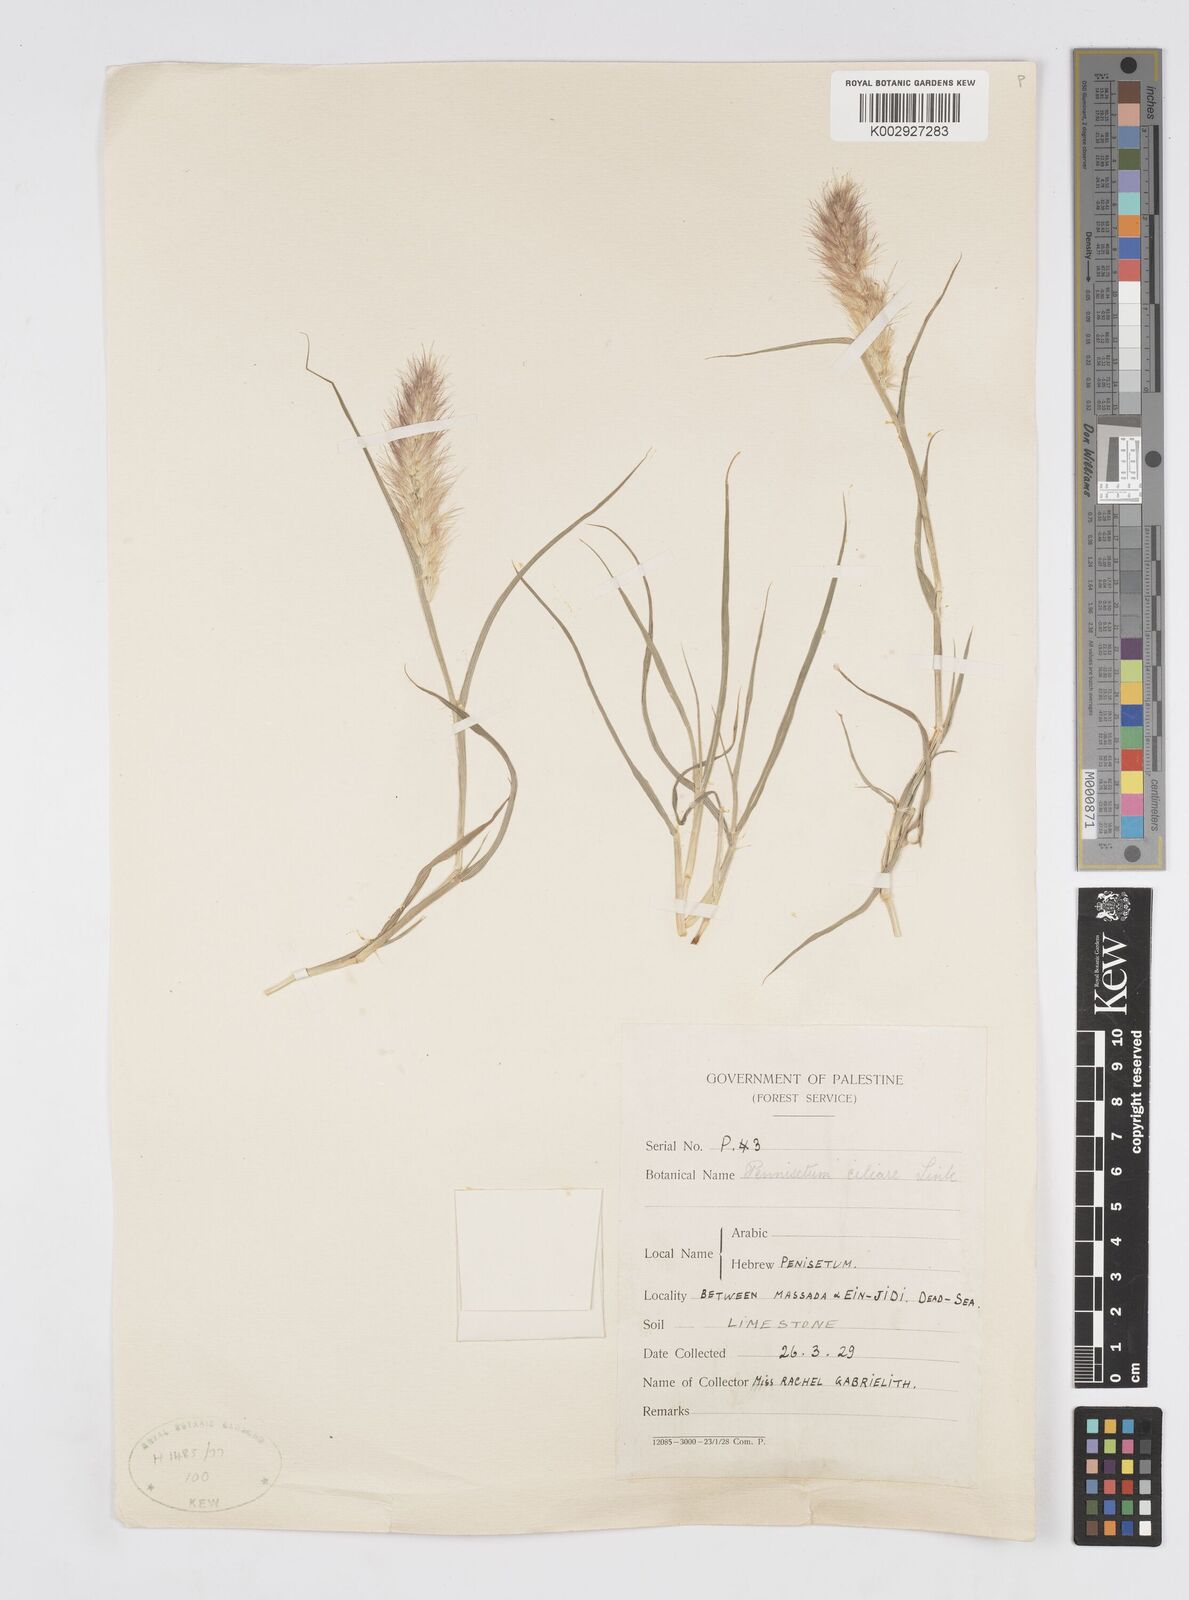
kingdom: Plantae
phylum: Tracheophyta
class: Liliopsida
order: Poales
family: Poaceae
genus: Cenchrus
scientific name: Cenchrus ciliaris
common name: Buffelgrass
